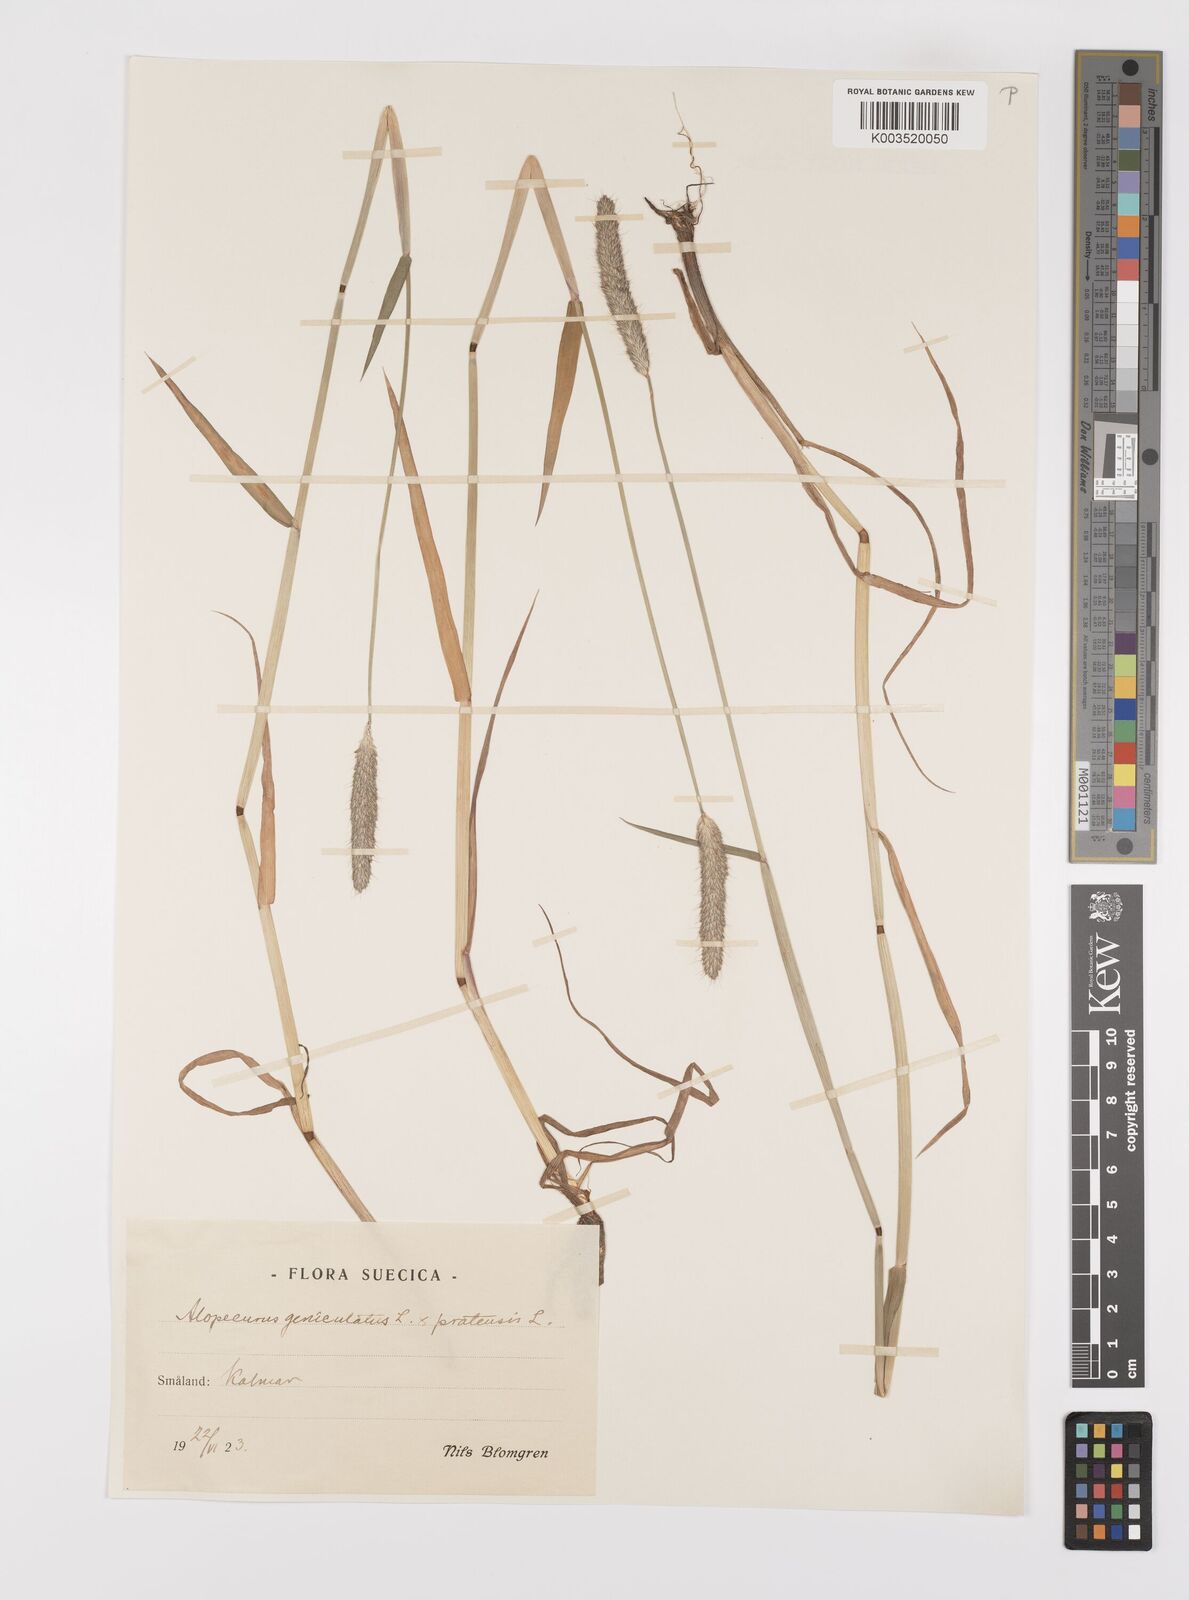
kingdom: Plantae
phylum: Tracheophyta
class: Liliopsida
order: Poales
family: Poaceae
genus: Alopecurus
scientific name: Alopecurus brachystylus
